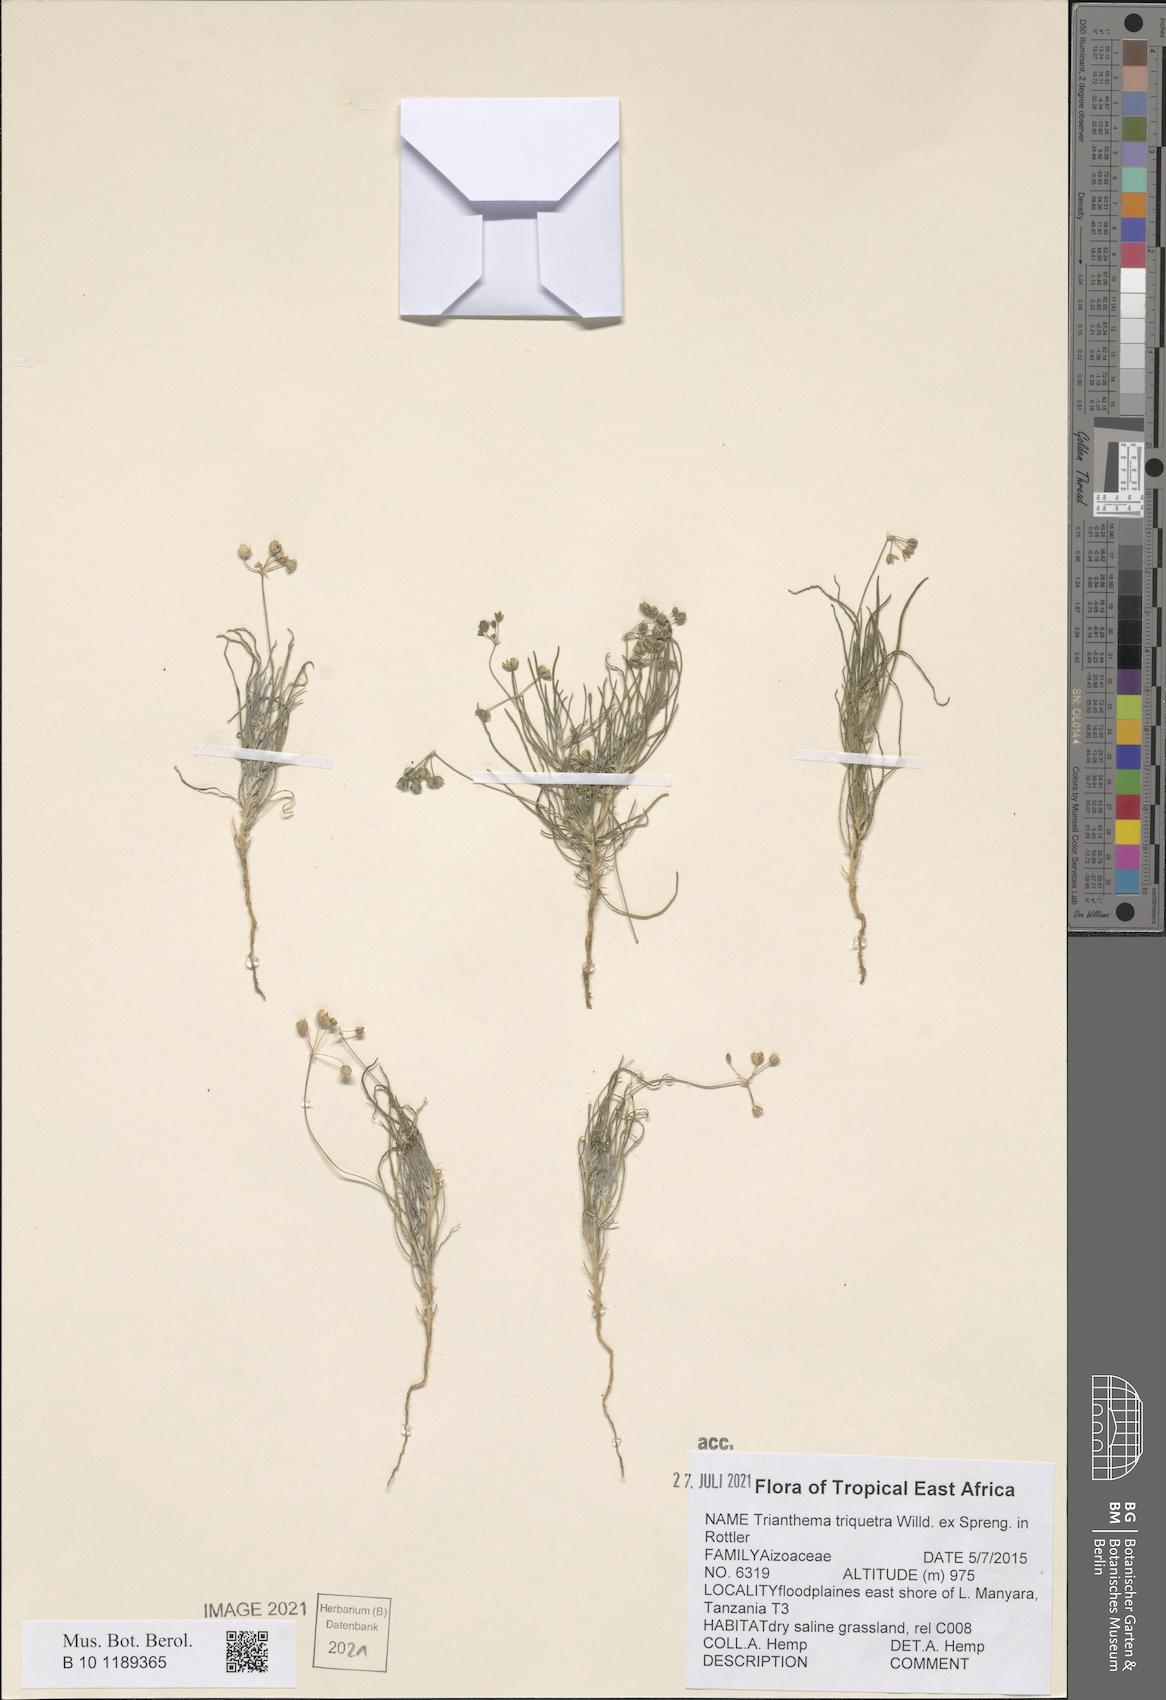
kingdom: Plantae
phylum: Tracheophyta
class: Magnoliopsida
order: Caryophyllales
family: Aizoaceae
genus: Trianthema
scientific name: Trianthema triquetrum
